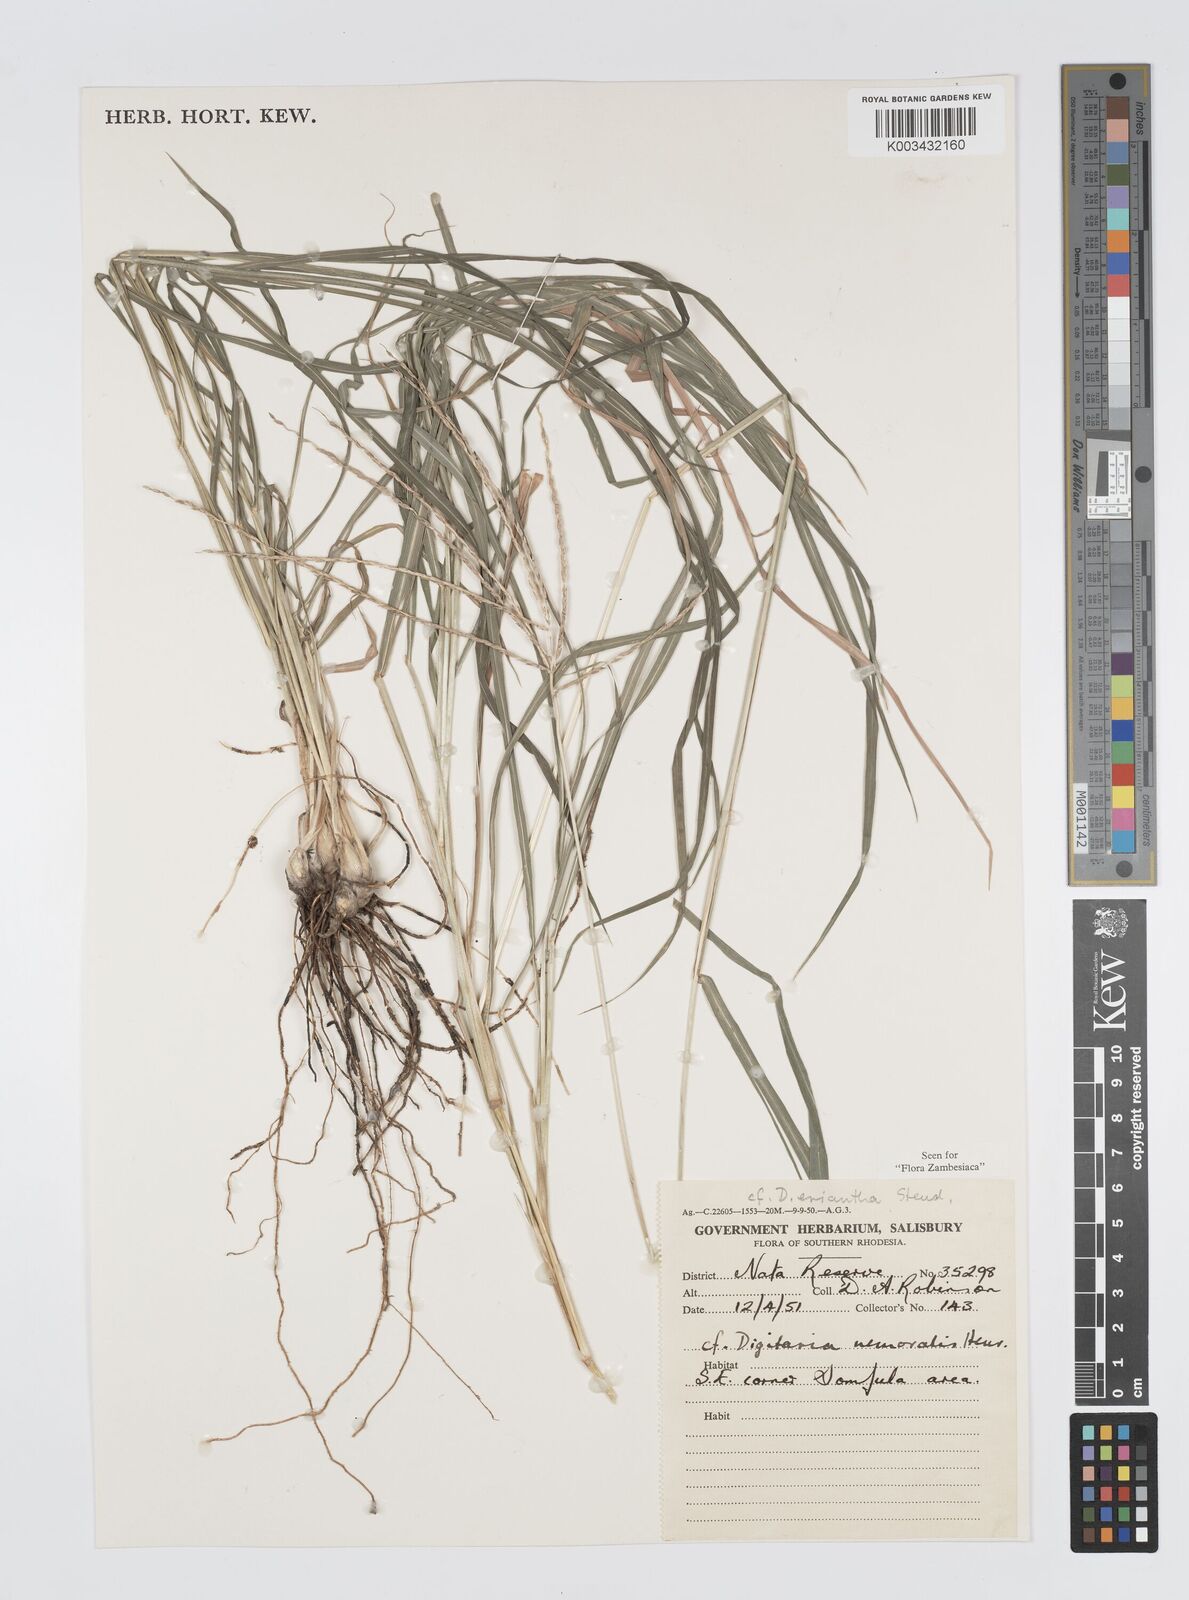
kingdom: Plantae
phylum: Tracheophyta
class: Liliopsida
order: Poales
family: Poaceae
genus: Digitaria
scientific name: Digitaria milanjiana
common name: Madagascar crabgrass
